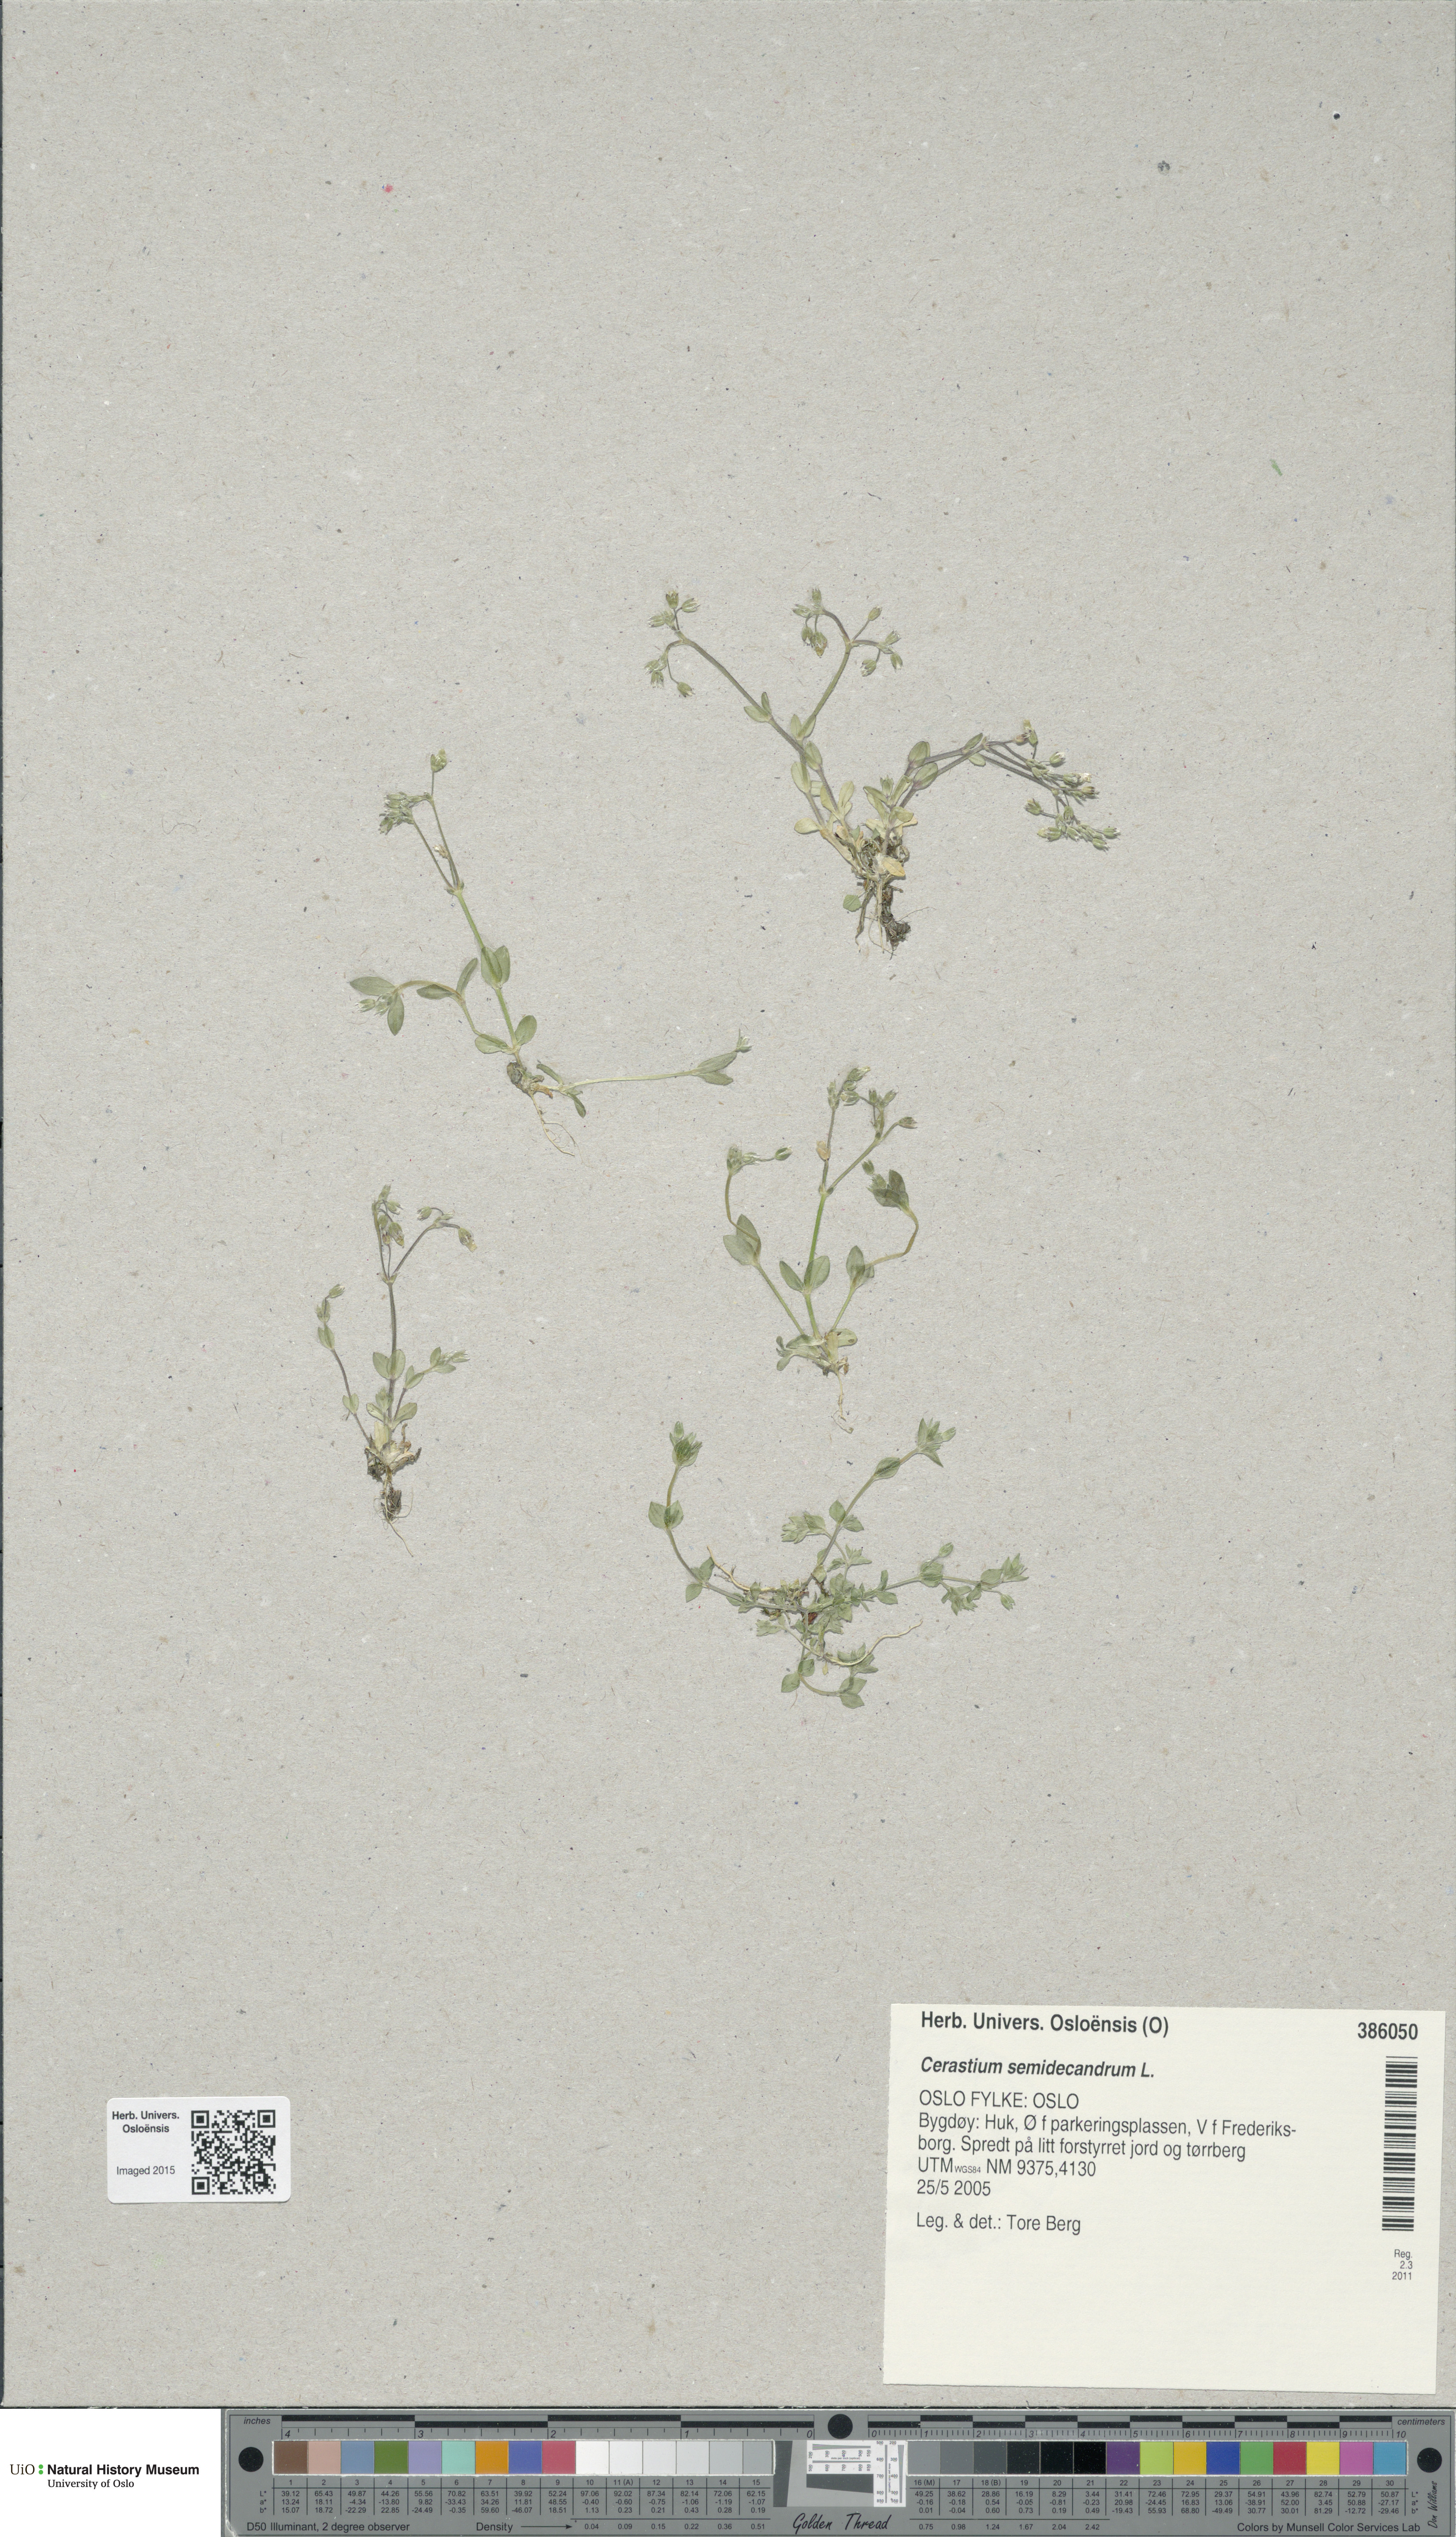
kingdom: Plantae
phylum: Tracheophyta
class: Magnoliopsida
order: Caryophyllales
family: Caryophyllaceae
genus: Cerastium
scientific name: Cerastium semidecandrum
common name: Little mouse-ear
